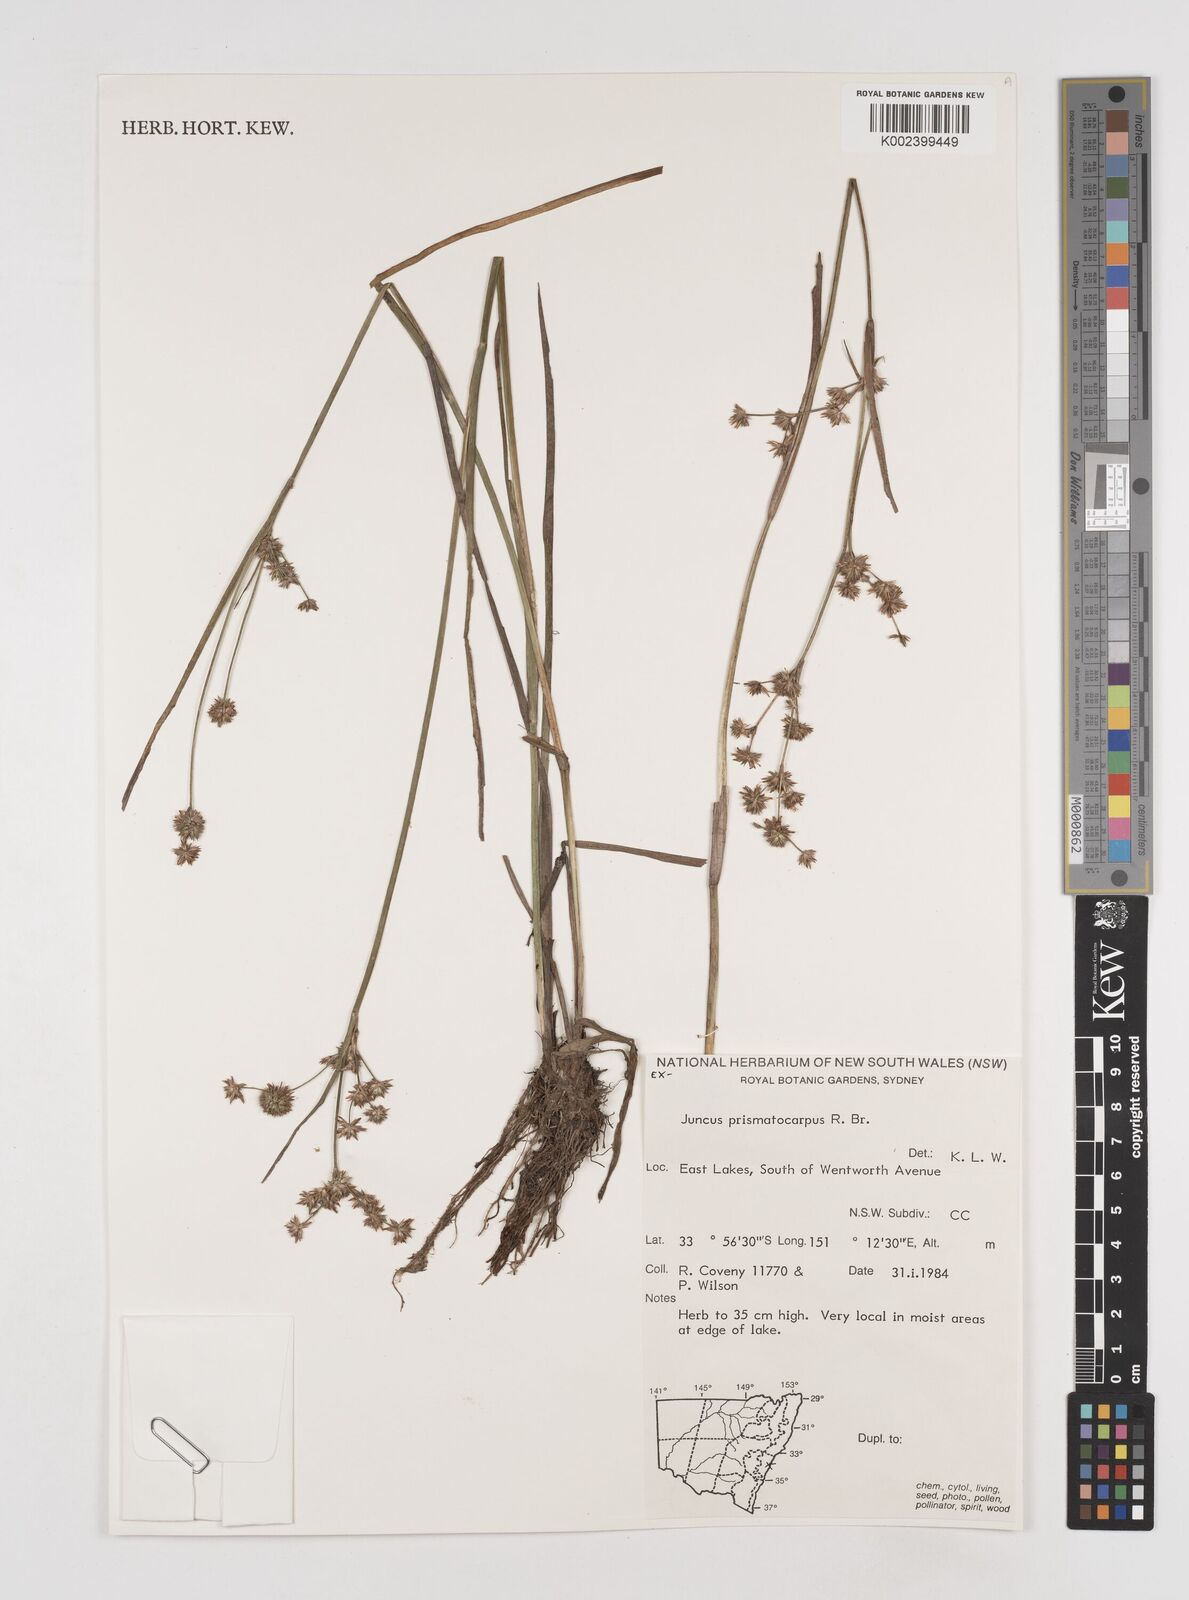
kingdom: Plantae
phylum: Tracheophyta
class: Liliopsida
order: Poales
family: Juncaceae
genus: Juncus
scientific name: Juncus prismatocarpus
